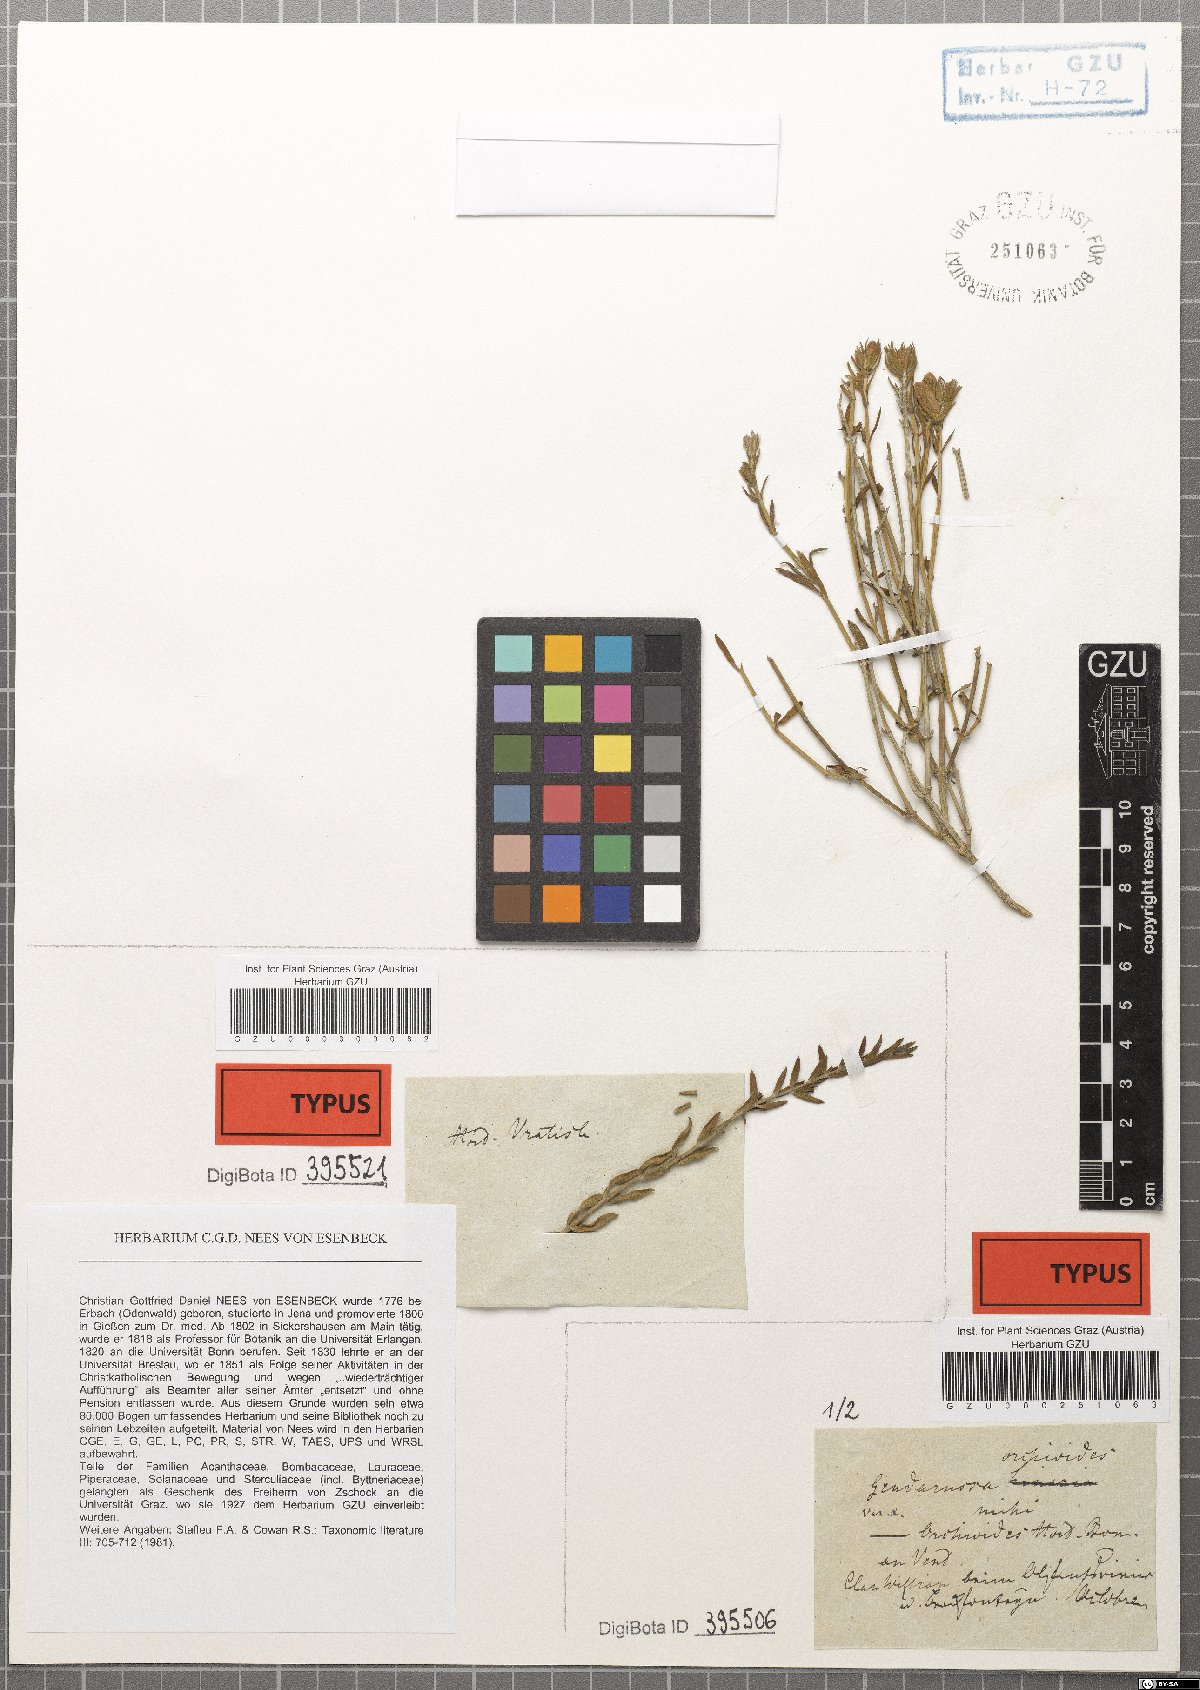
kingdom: Plantae
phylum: Tracheophyta
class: Magnoliopsida
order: Lamiales
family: Acanthaceae
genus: Justicia
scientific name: Justicia orchioides
